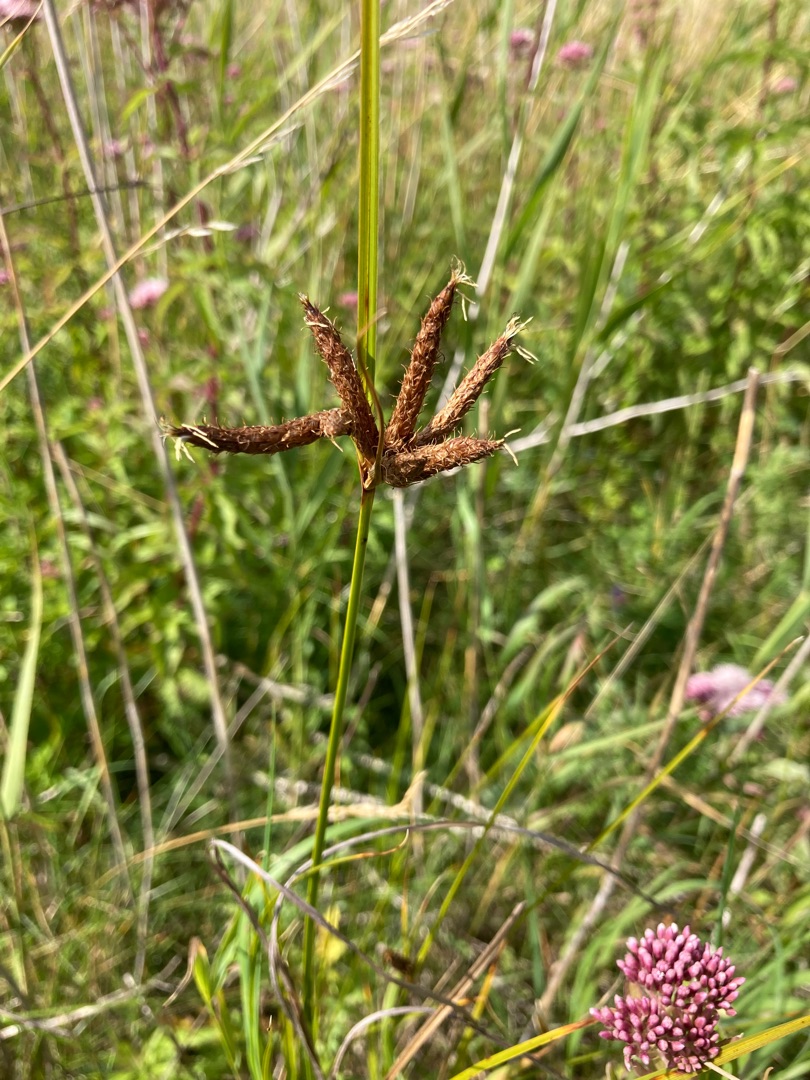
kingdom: Plantae
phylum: Tracheophyta
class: Liliopsida
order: Poales
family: Cyperaceae
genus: Bolboschoenus
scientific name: Bolboschoenus maritimus
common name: Strand-kogleaks
